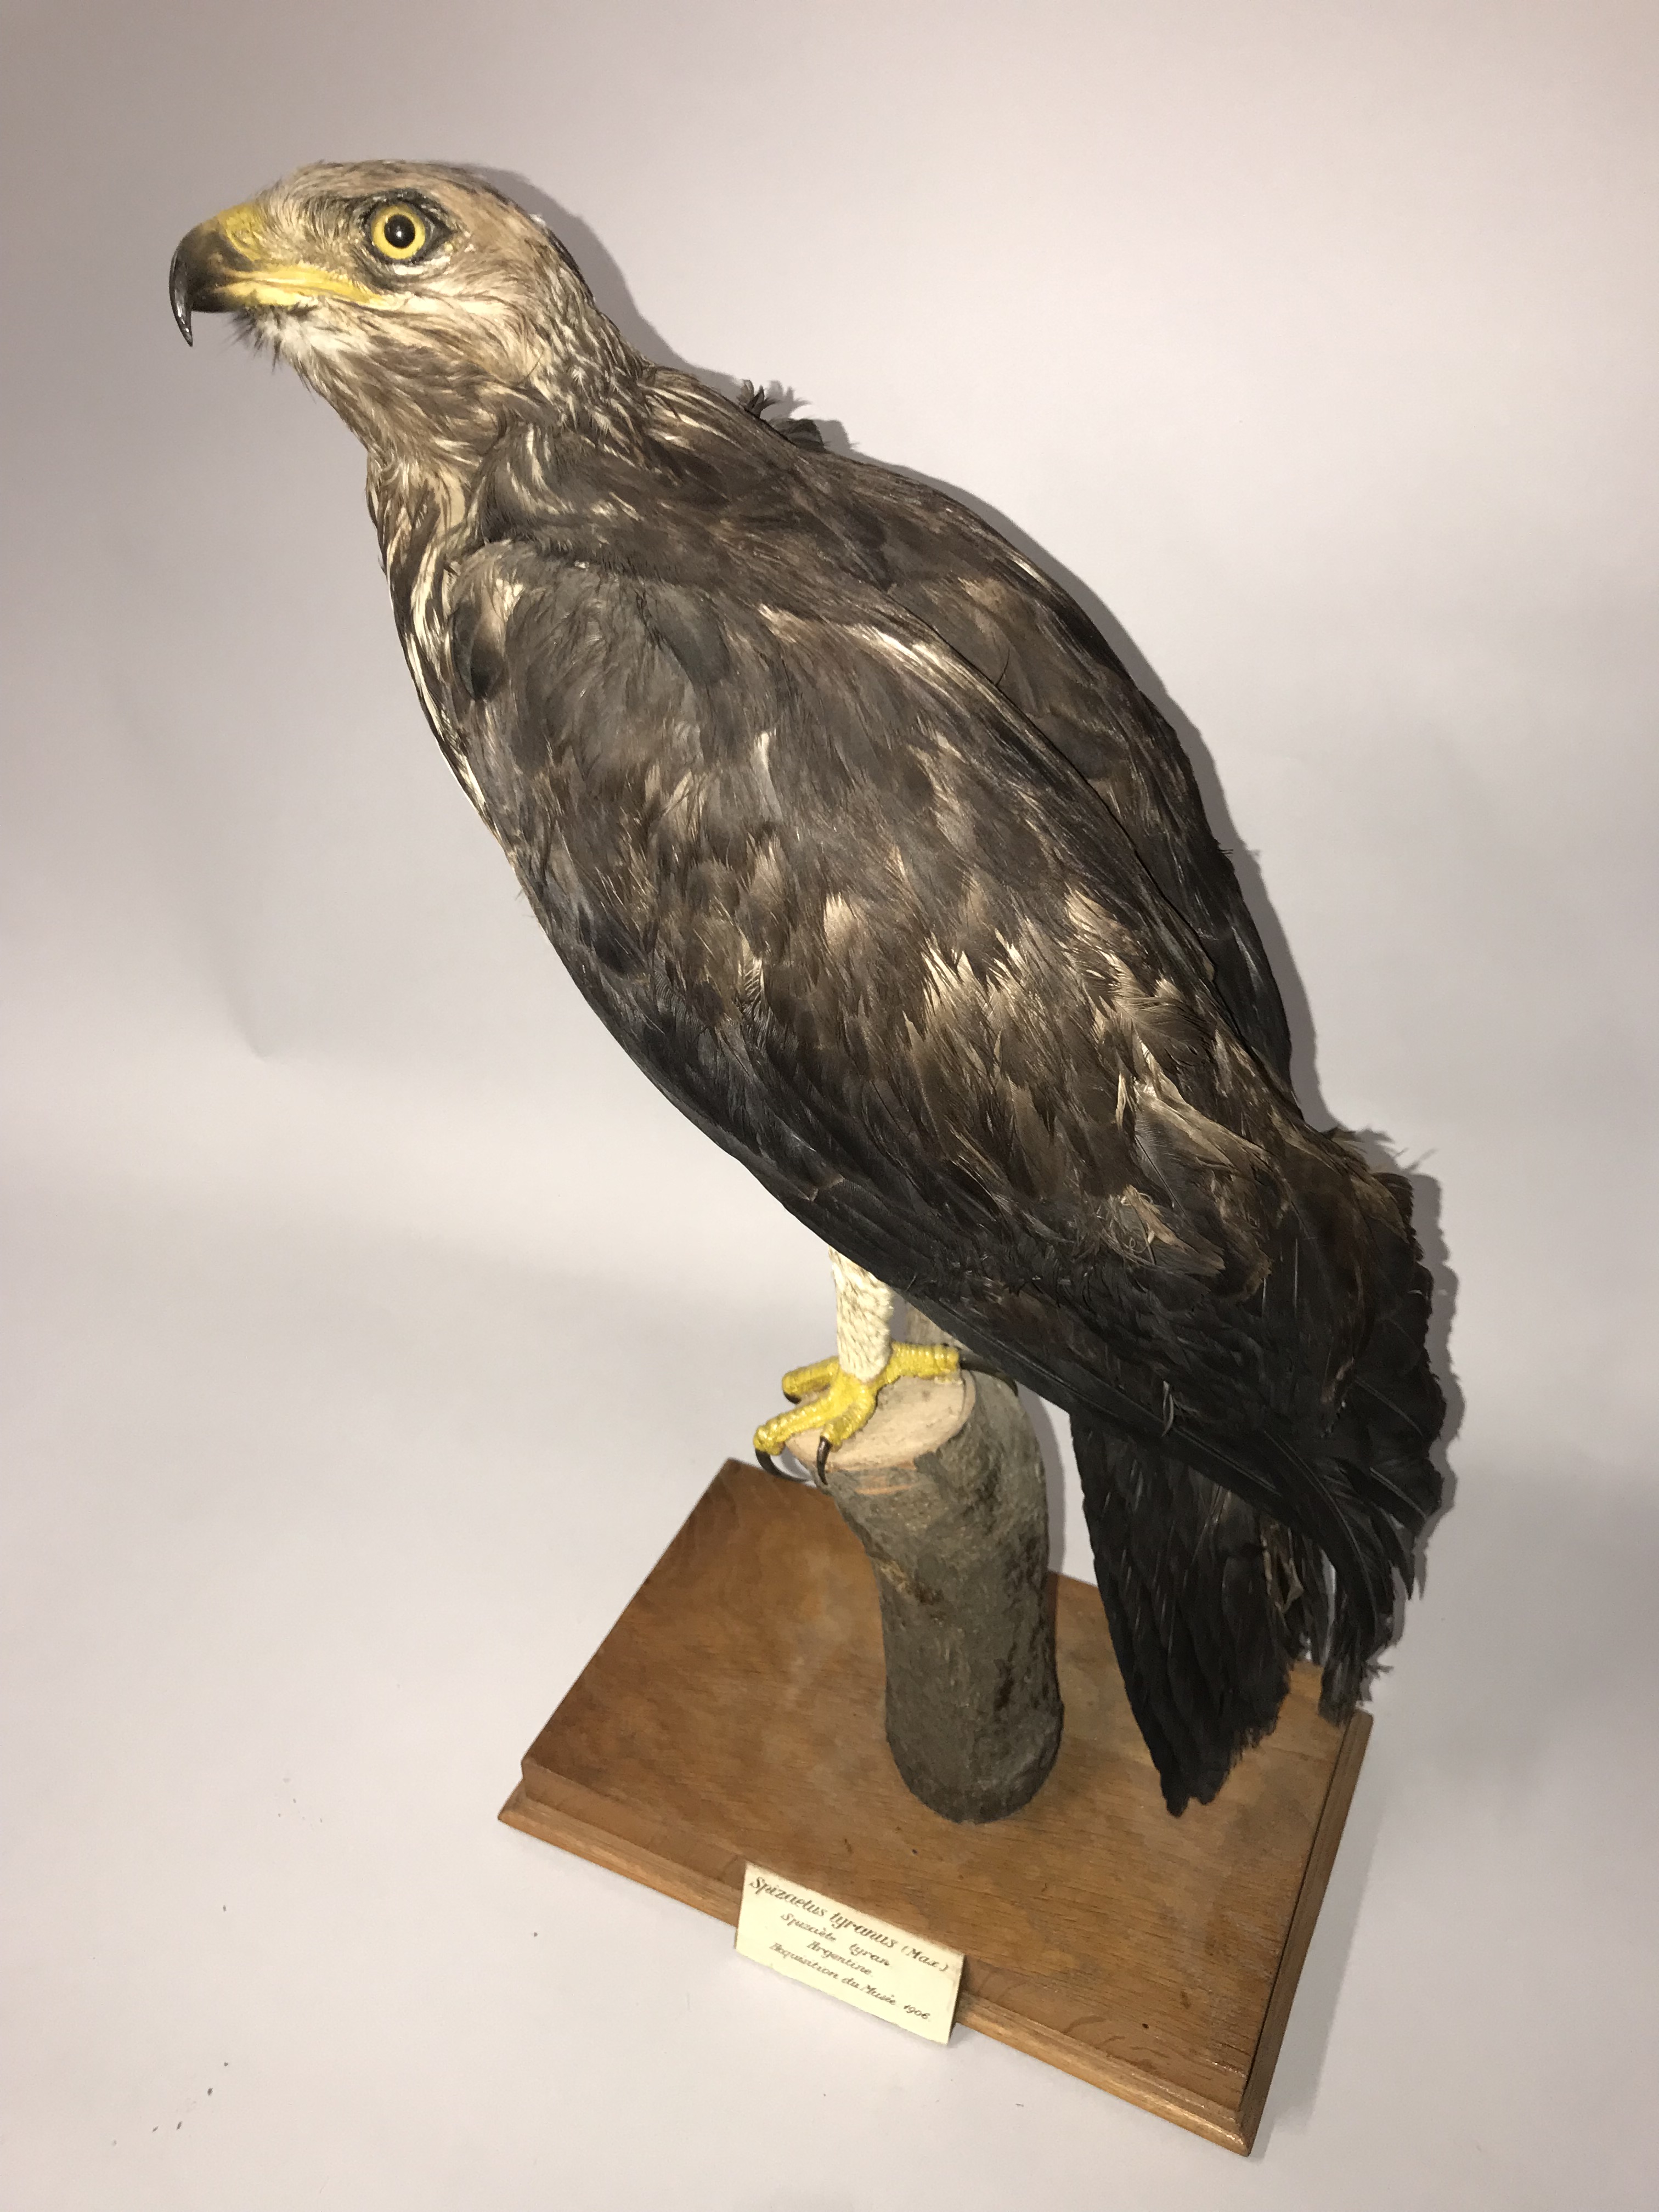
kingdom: Animalia
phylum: Chordata
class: Aves
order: Accipitriformes
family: Accipitridae
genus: Ictinaetus
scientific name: Ictinaetus malayensis
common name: Black eagle
